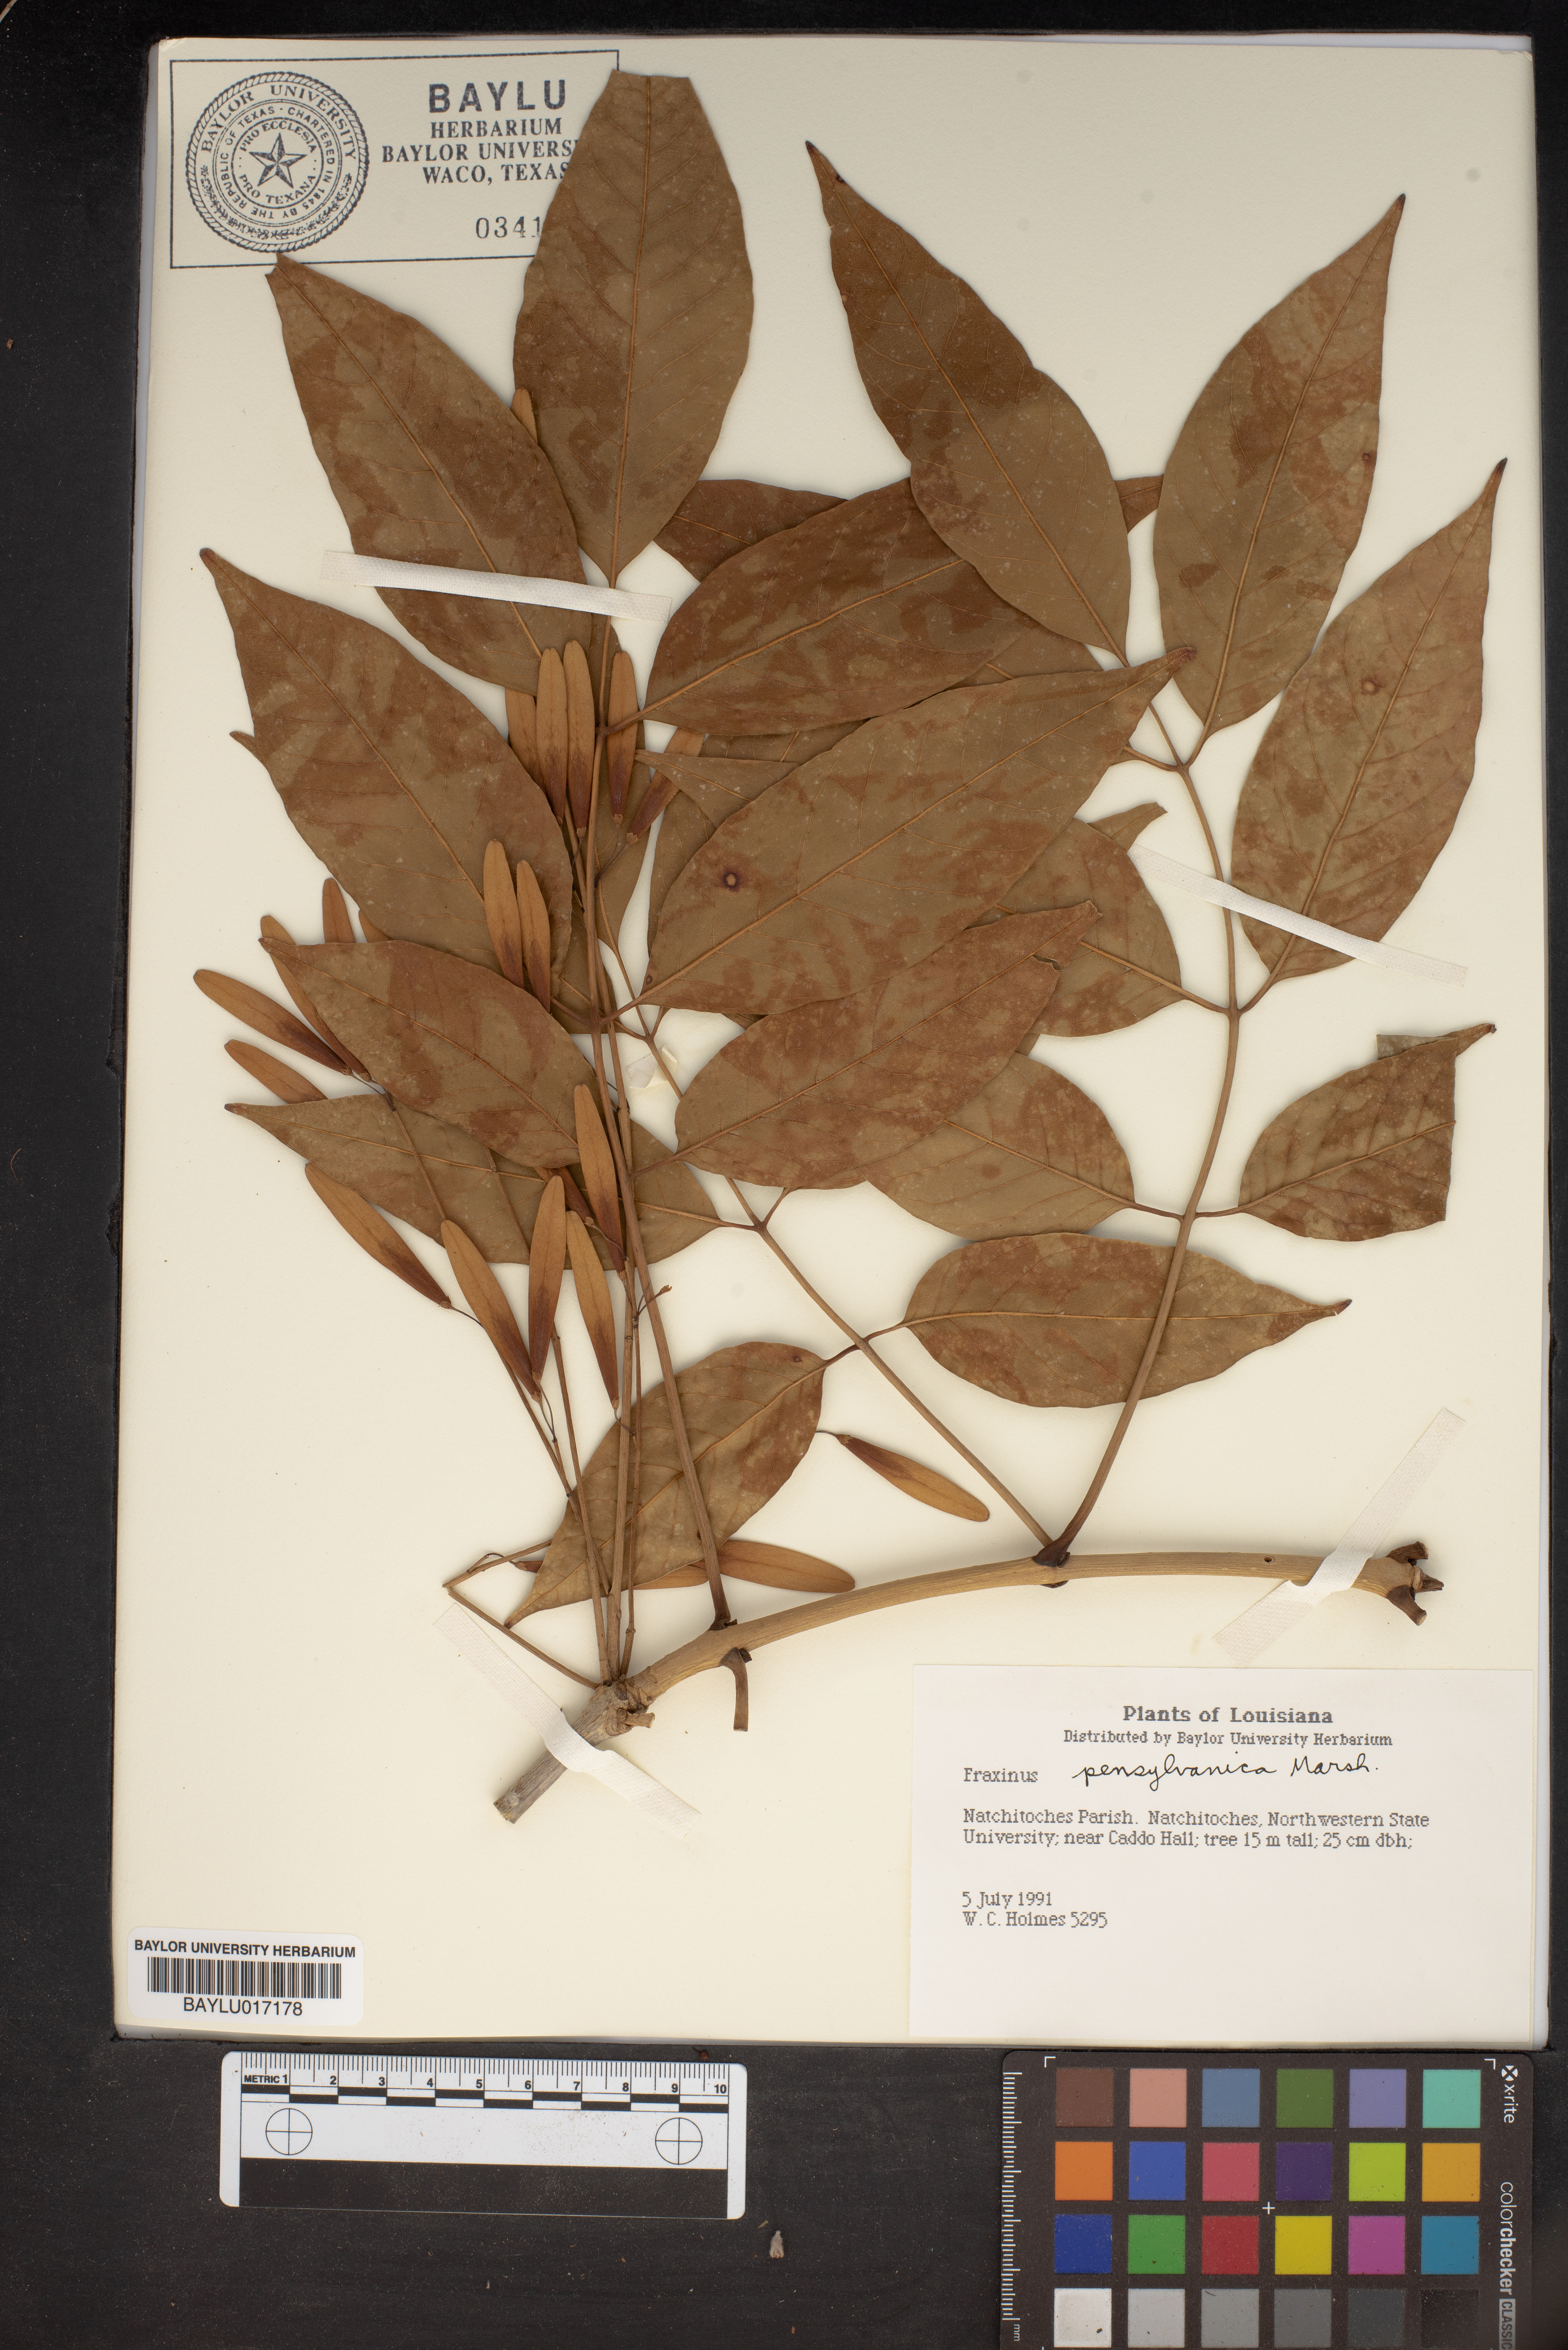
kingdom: Plantae
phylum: Tracheophyta
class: Magnoliopsida
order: Lamiales
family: Oleaceae
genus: Fraxinus
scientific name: Fraxinus pennsylvanica
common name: Green ash
